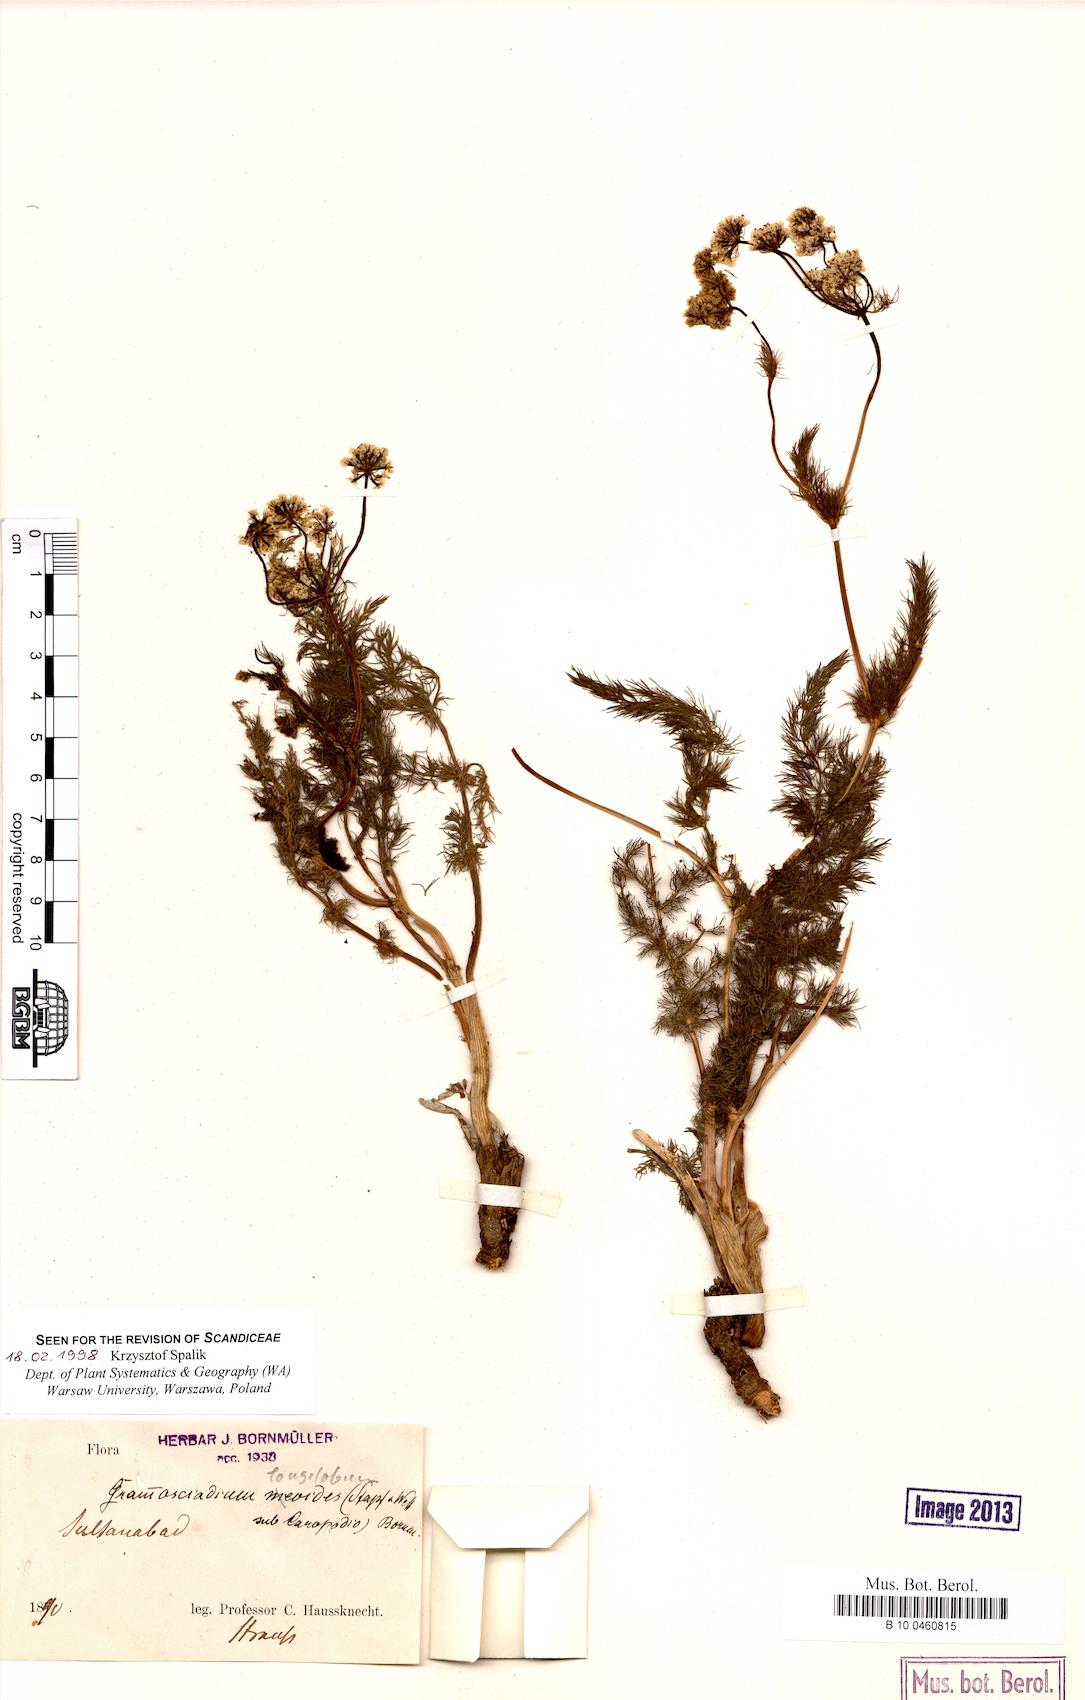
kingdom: Plantae
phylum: Tracheophyta
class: Magnoliopsida
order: Apiales
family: Apiaceae
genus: Grammosciadium
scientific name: Grammosciadium scabridum
